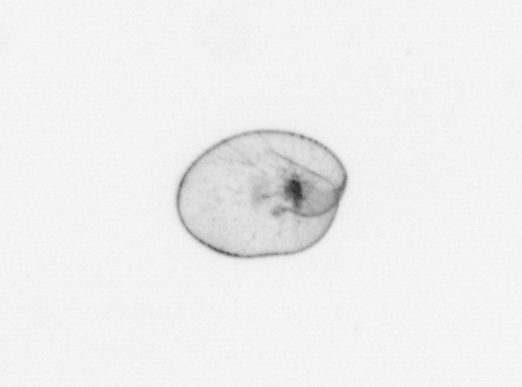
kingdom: Chromista
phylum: Myzozoa
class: Dinophyceae
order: Noctilucales
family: Noctilucaceae
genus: Noctiluca
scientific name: Noctiluca scintillans
